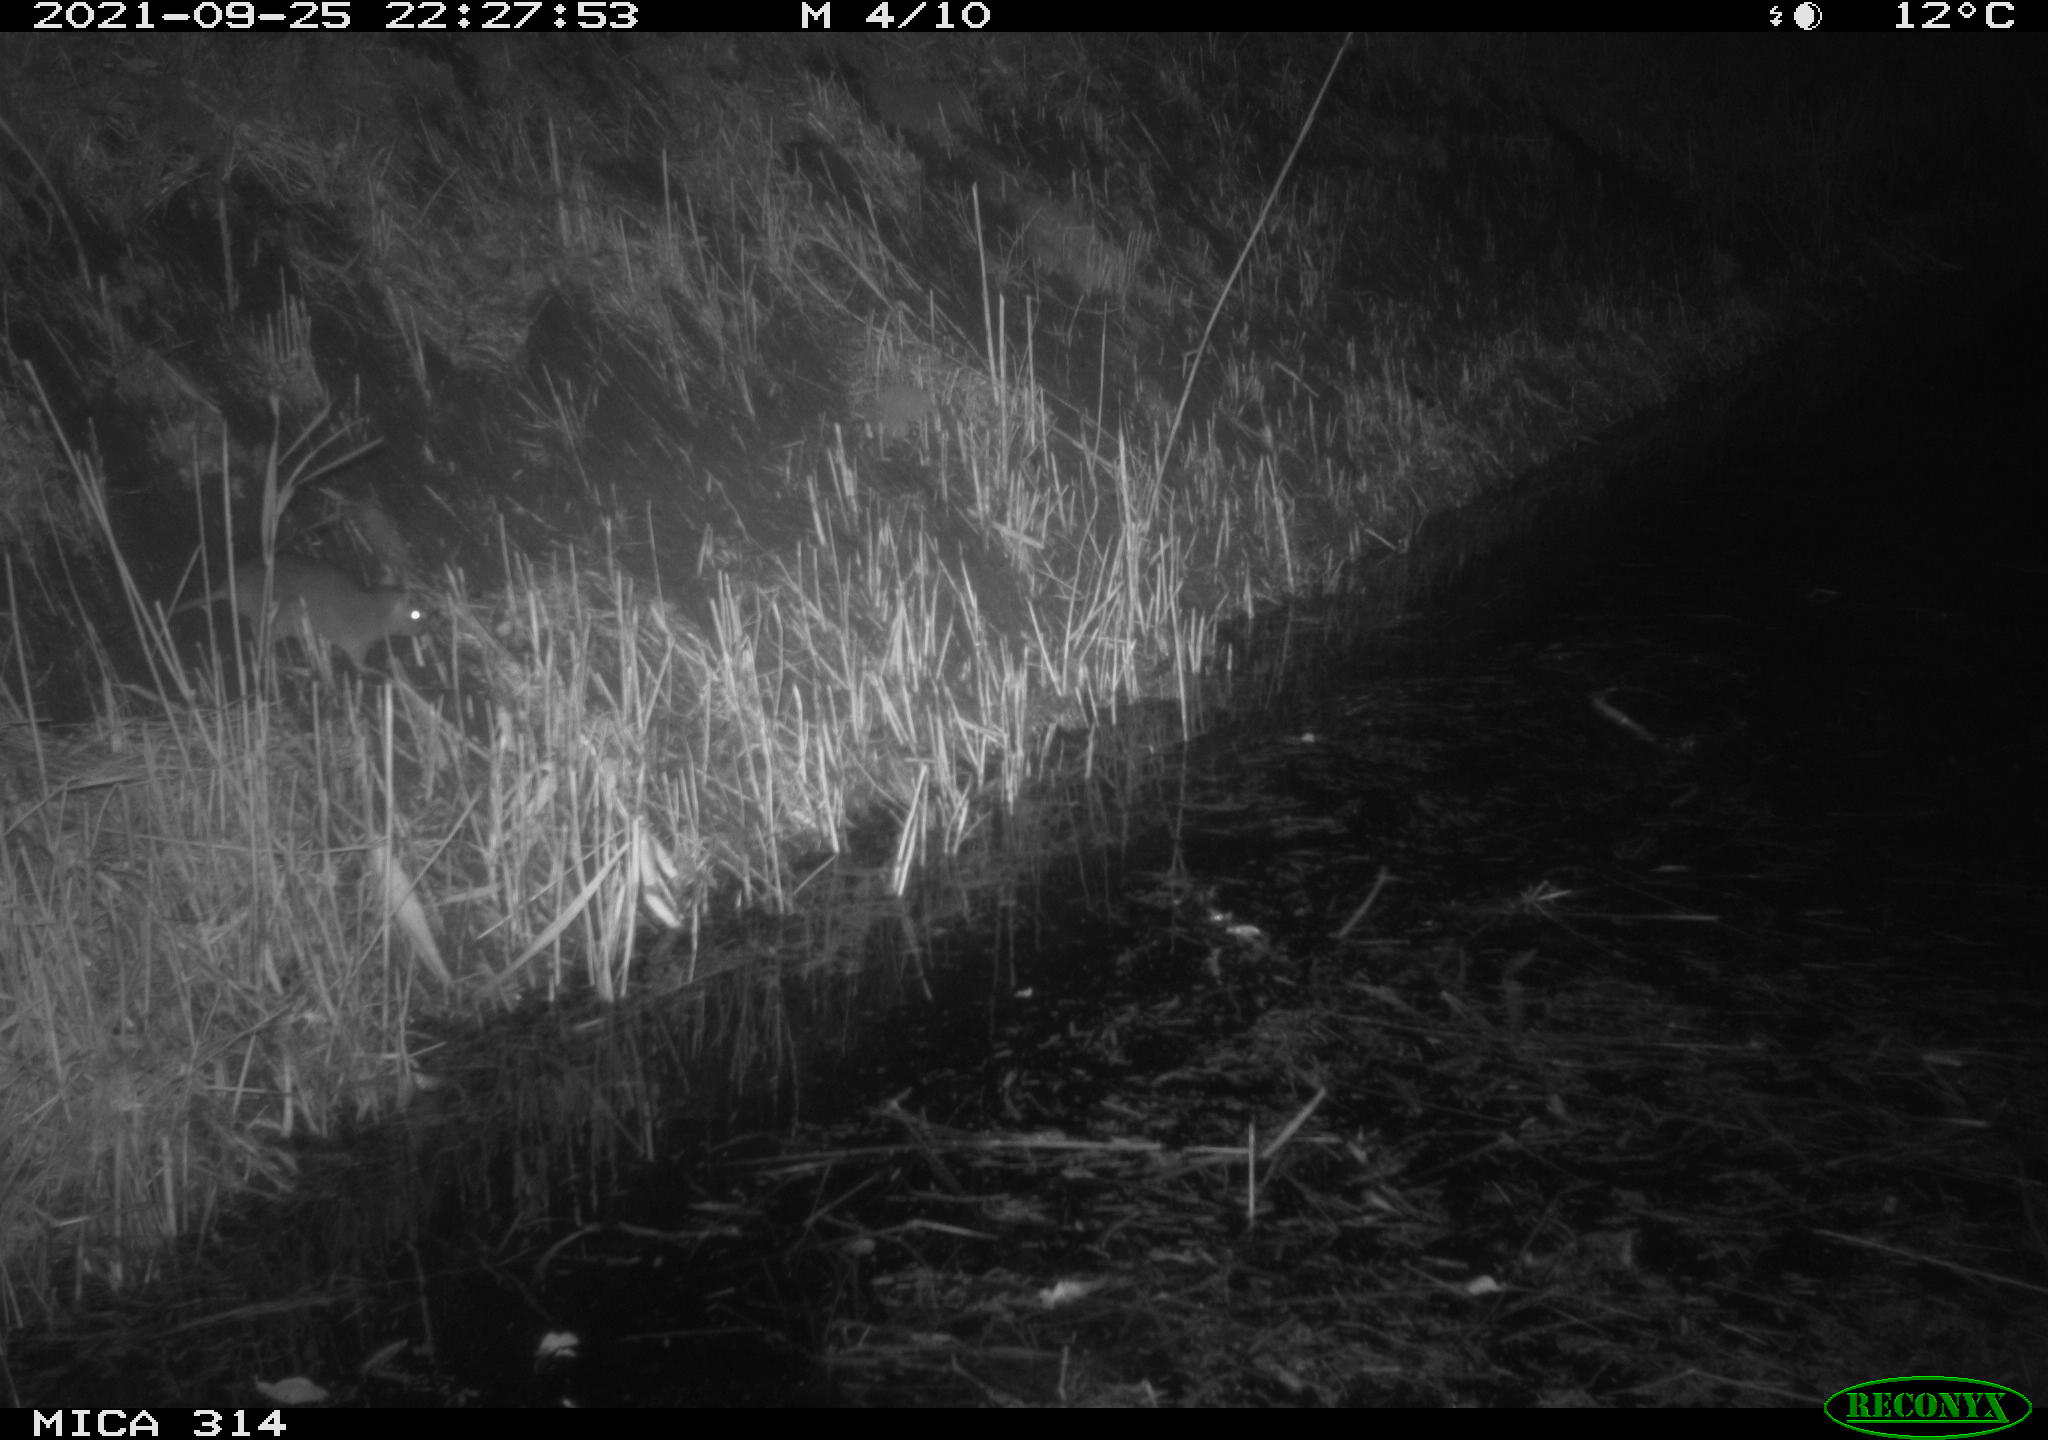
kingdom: Animalia
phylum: Chordata
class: Mammalia
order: Rodentia
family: Muridae
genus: Rattus
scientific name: Rattus norvegicus
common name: Brown rat
